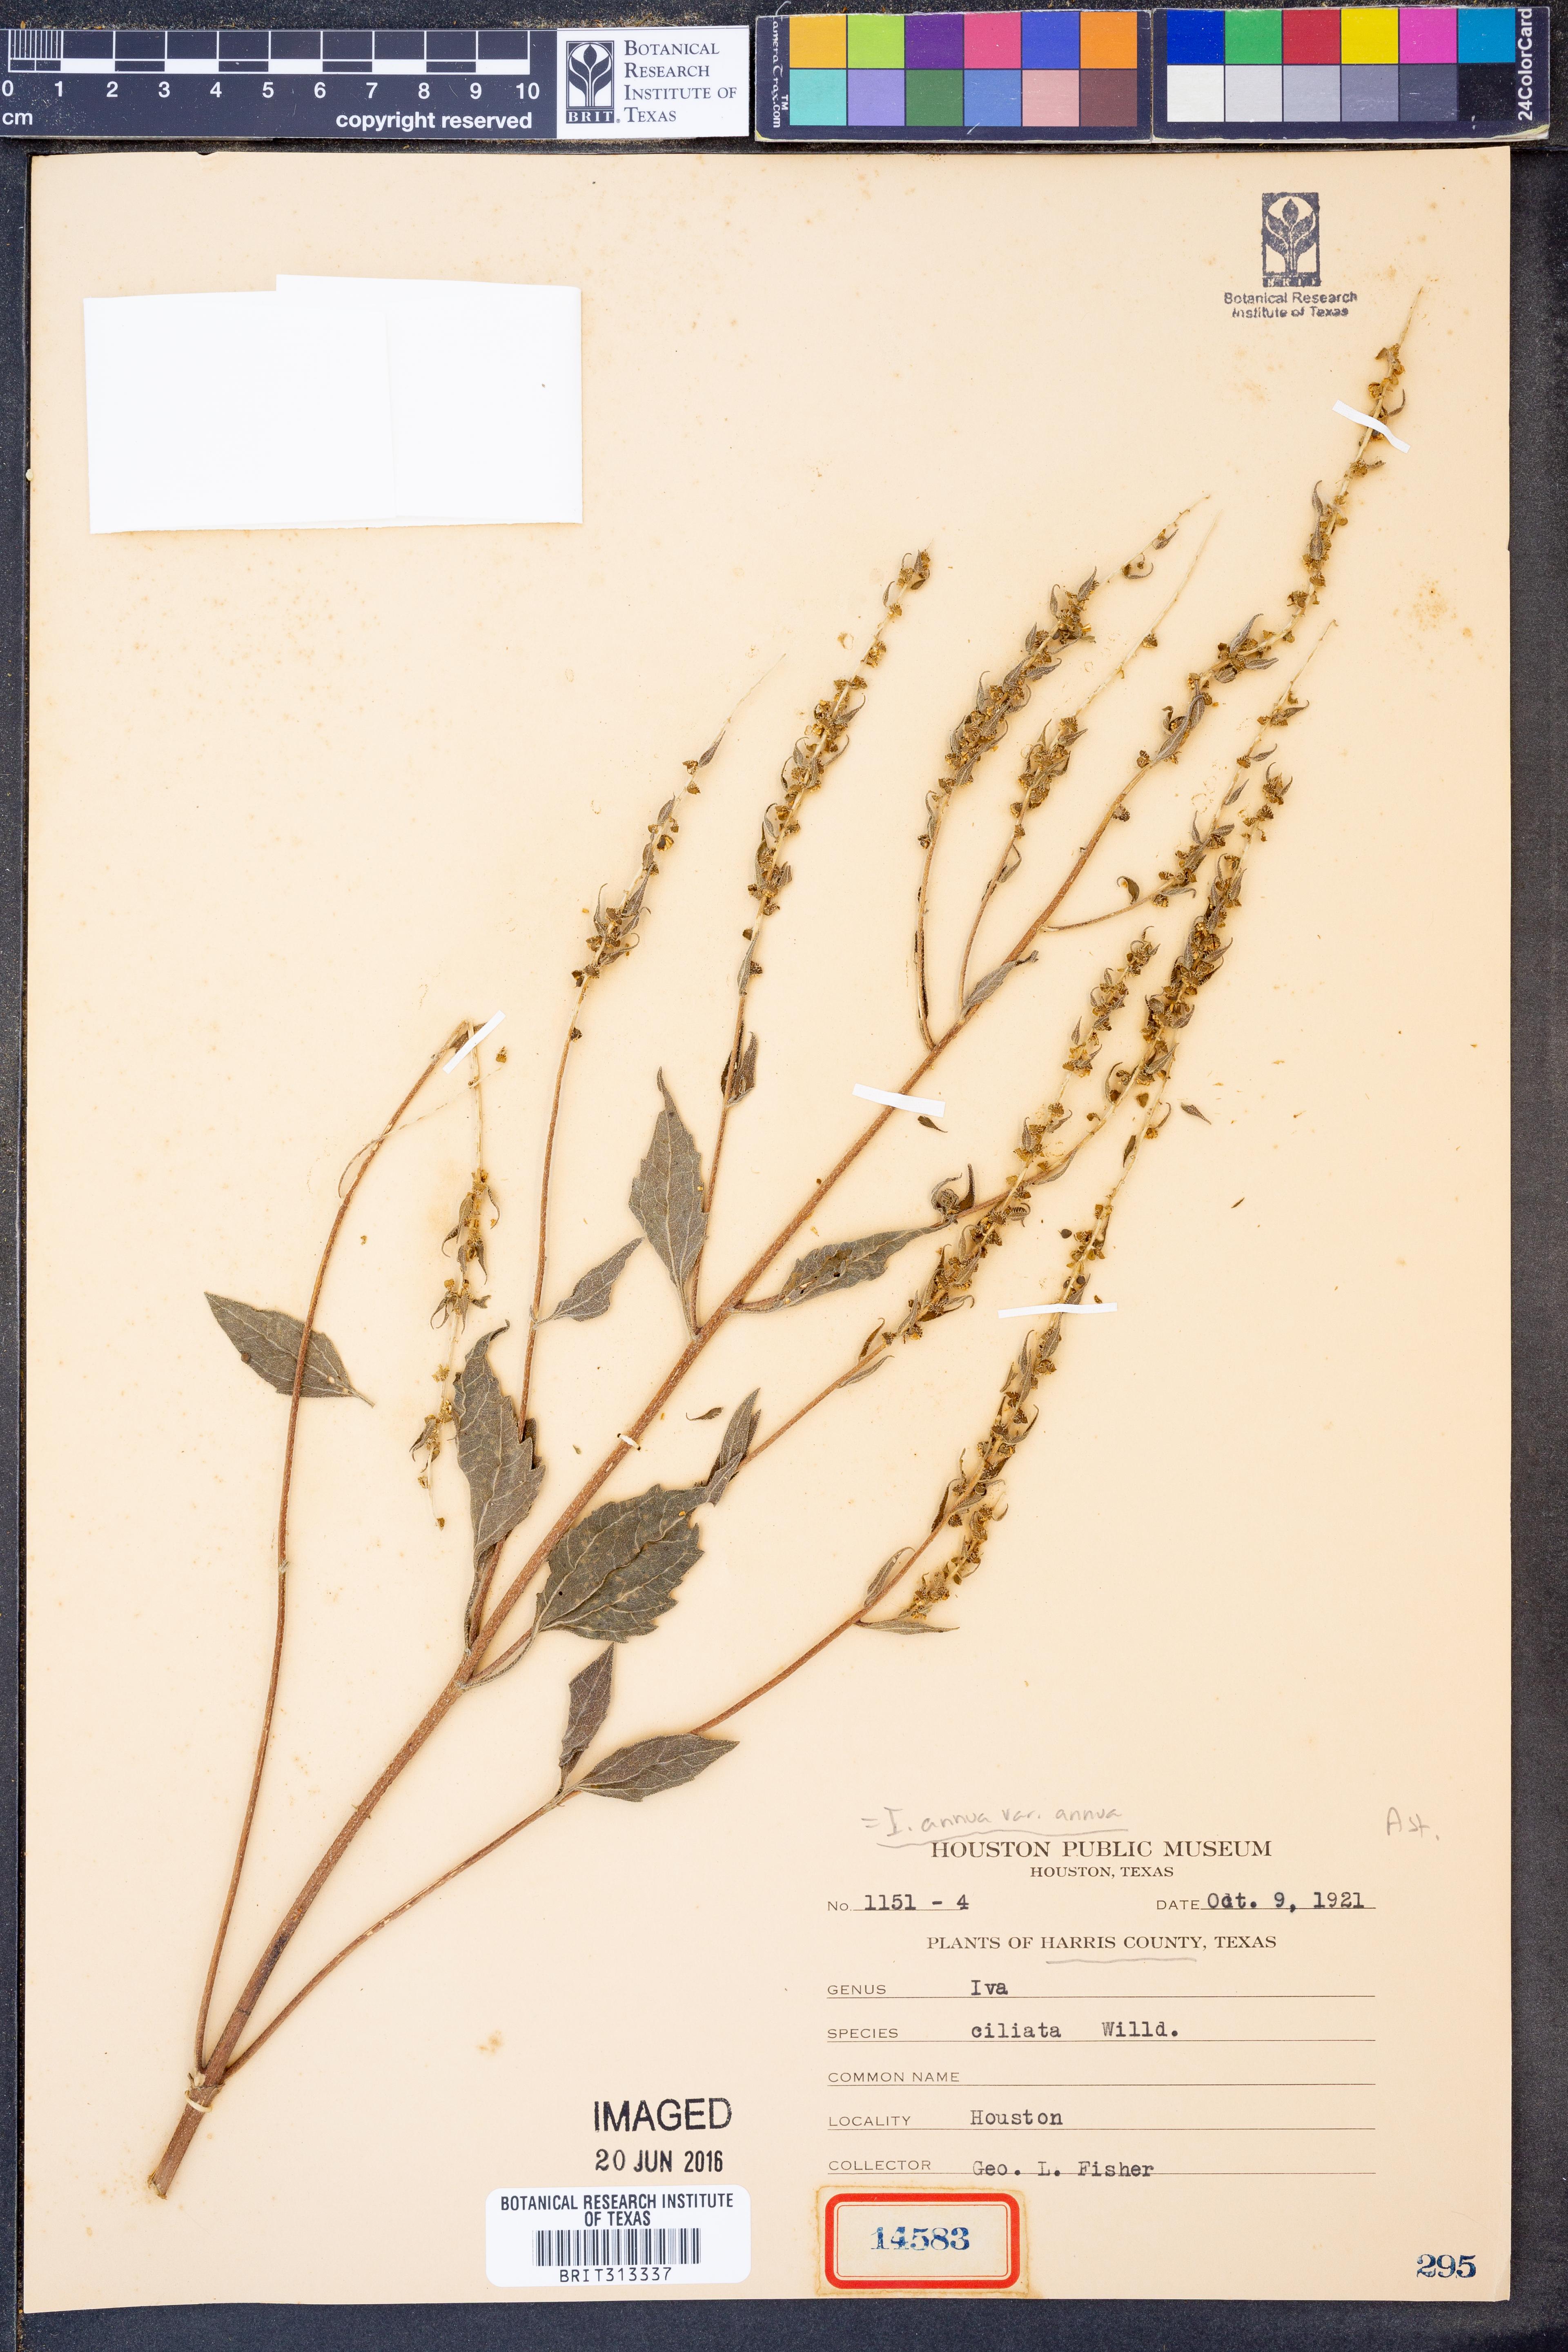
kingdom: Plantae
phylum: Tracheophyta
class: Magnoliopsida
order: Asterales
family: Asteraceae
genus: Iva
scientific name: Iva annua
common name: Marsh-elder
